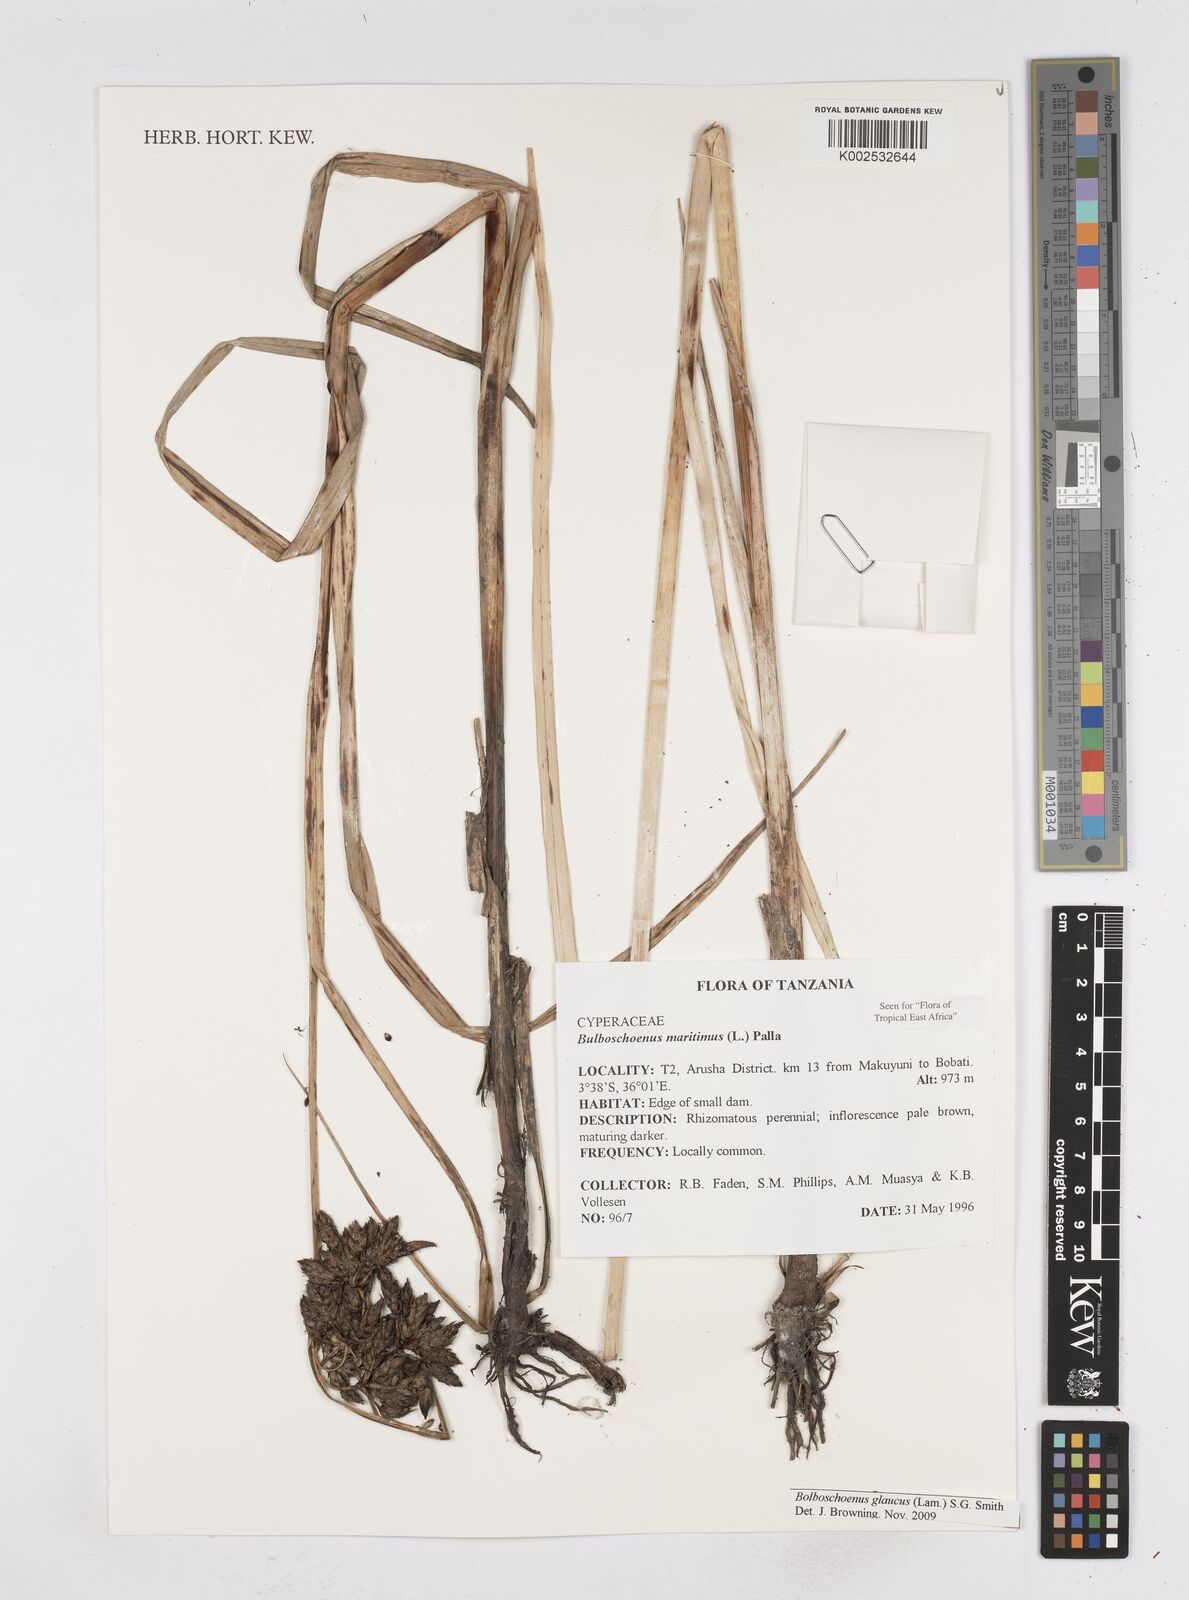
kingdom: Plantae
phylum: Tracheophyta
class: Liliopsida
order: Poales
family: Cyperaceae
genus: Bolboschoenus
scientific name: Bolboschoenus glaucus
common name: Tuberous bulrush
